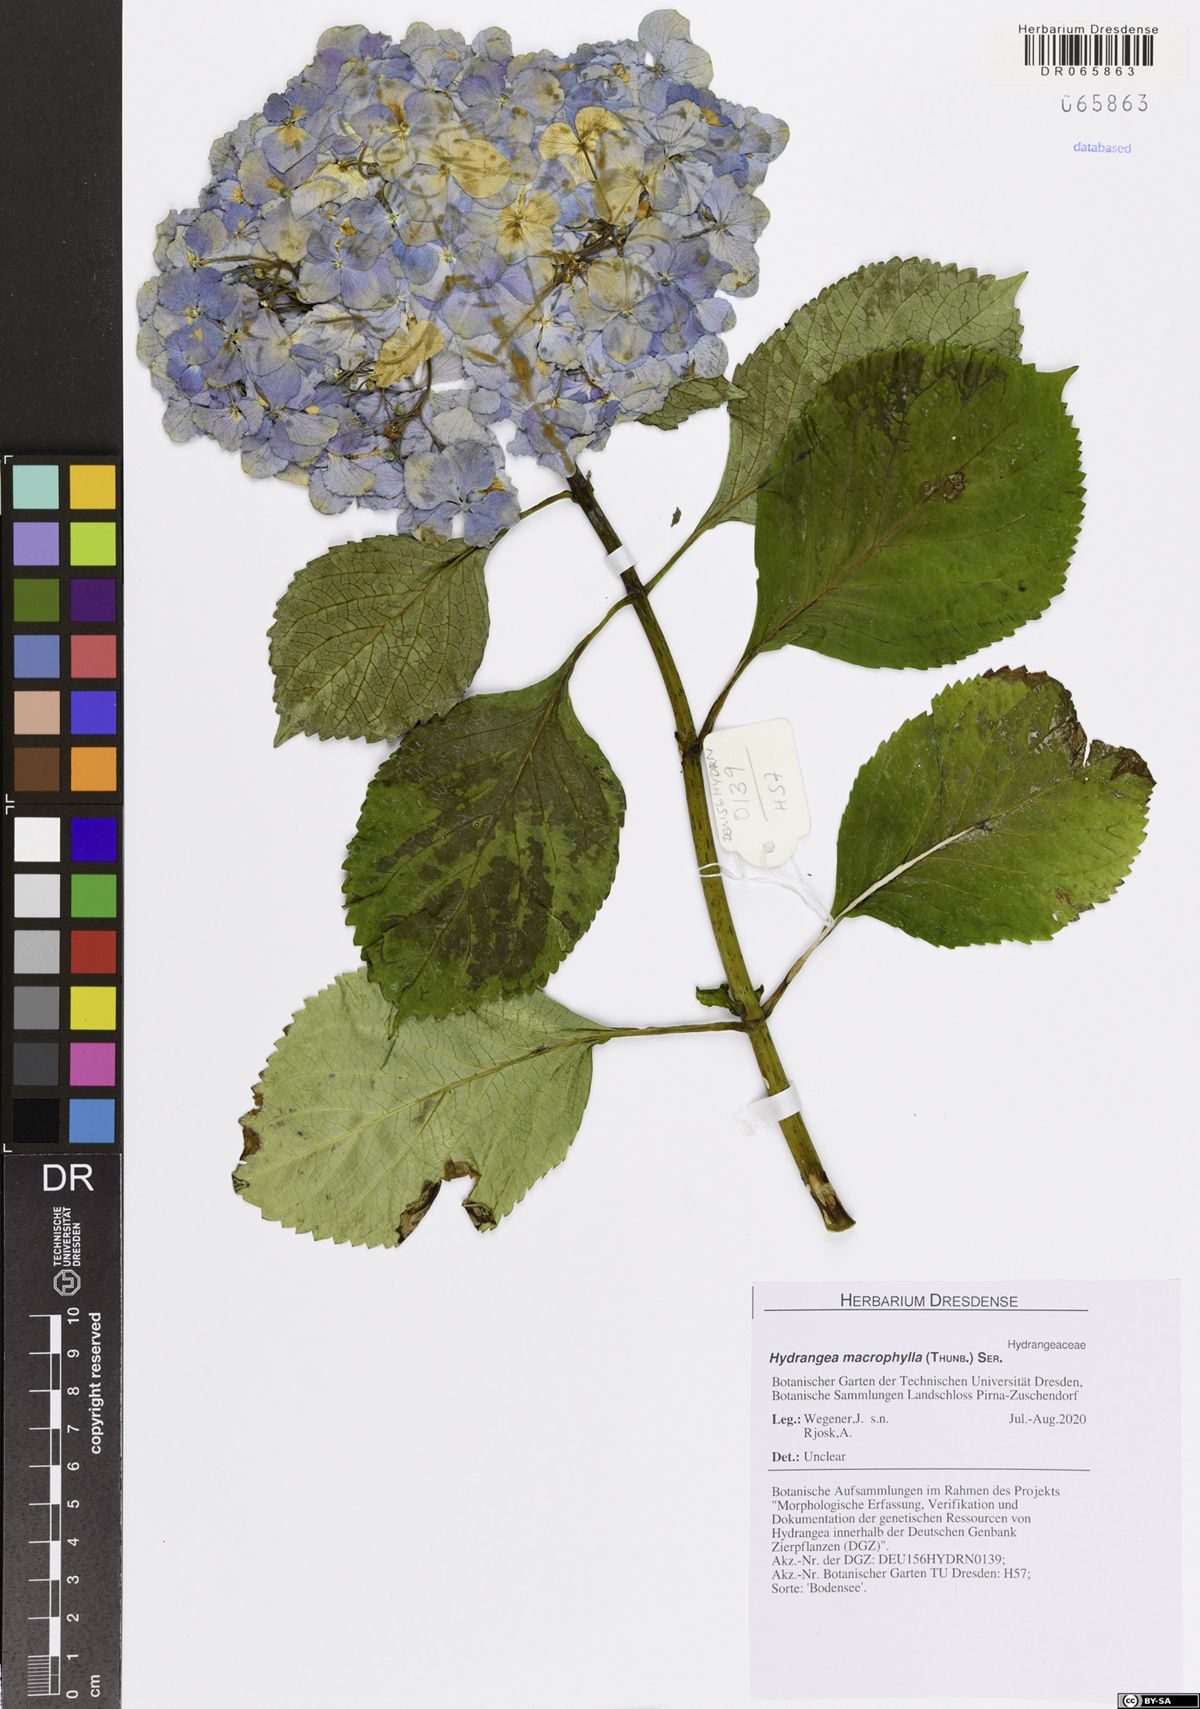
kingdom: Plantae
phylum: Tracheophyta
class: Magnoliopsida
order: Cornales
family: Hydrangeaceae
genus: Hydrangea
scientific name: Hydrangea macrophylla
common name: Hydrangea
